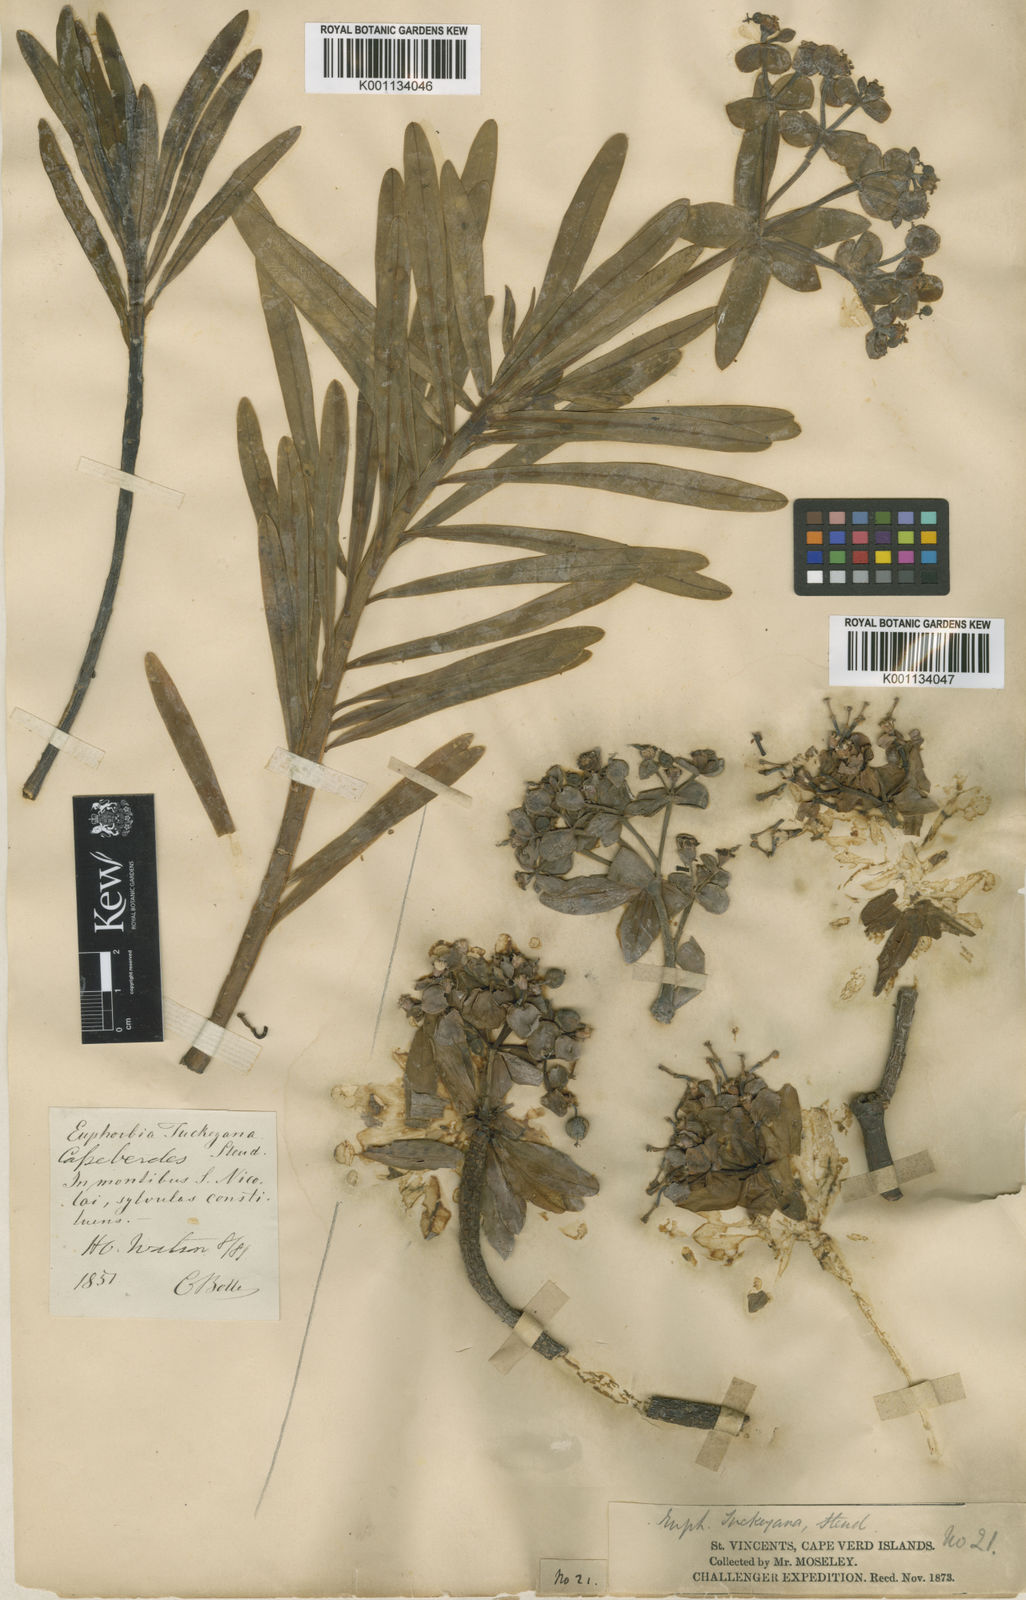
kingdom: Plantae
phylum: Tracheophyta
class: Magnoliopsida
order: Malpighiales
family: Euphorbiaceae
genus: Euphorbia
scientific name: Euphorbia
